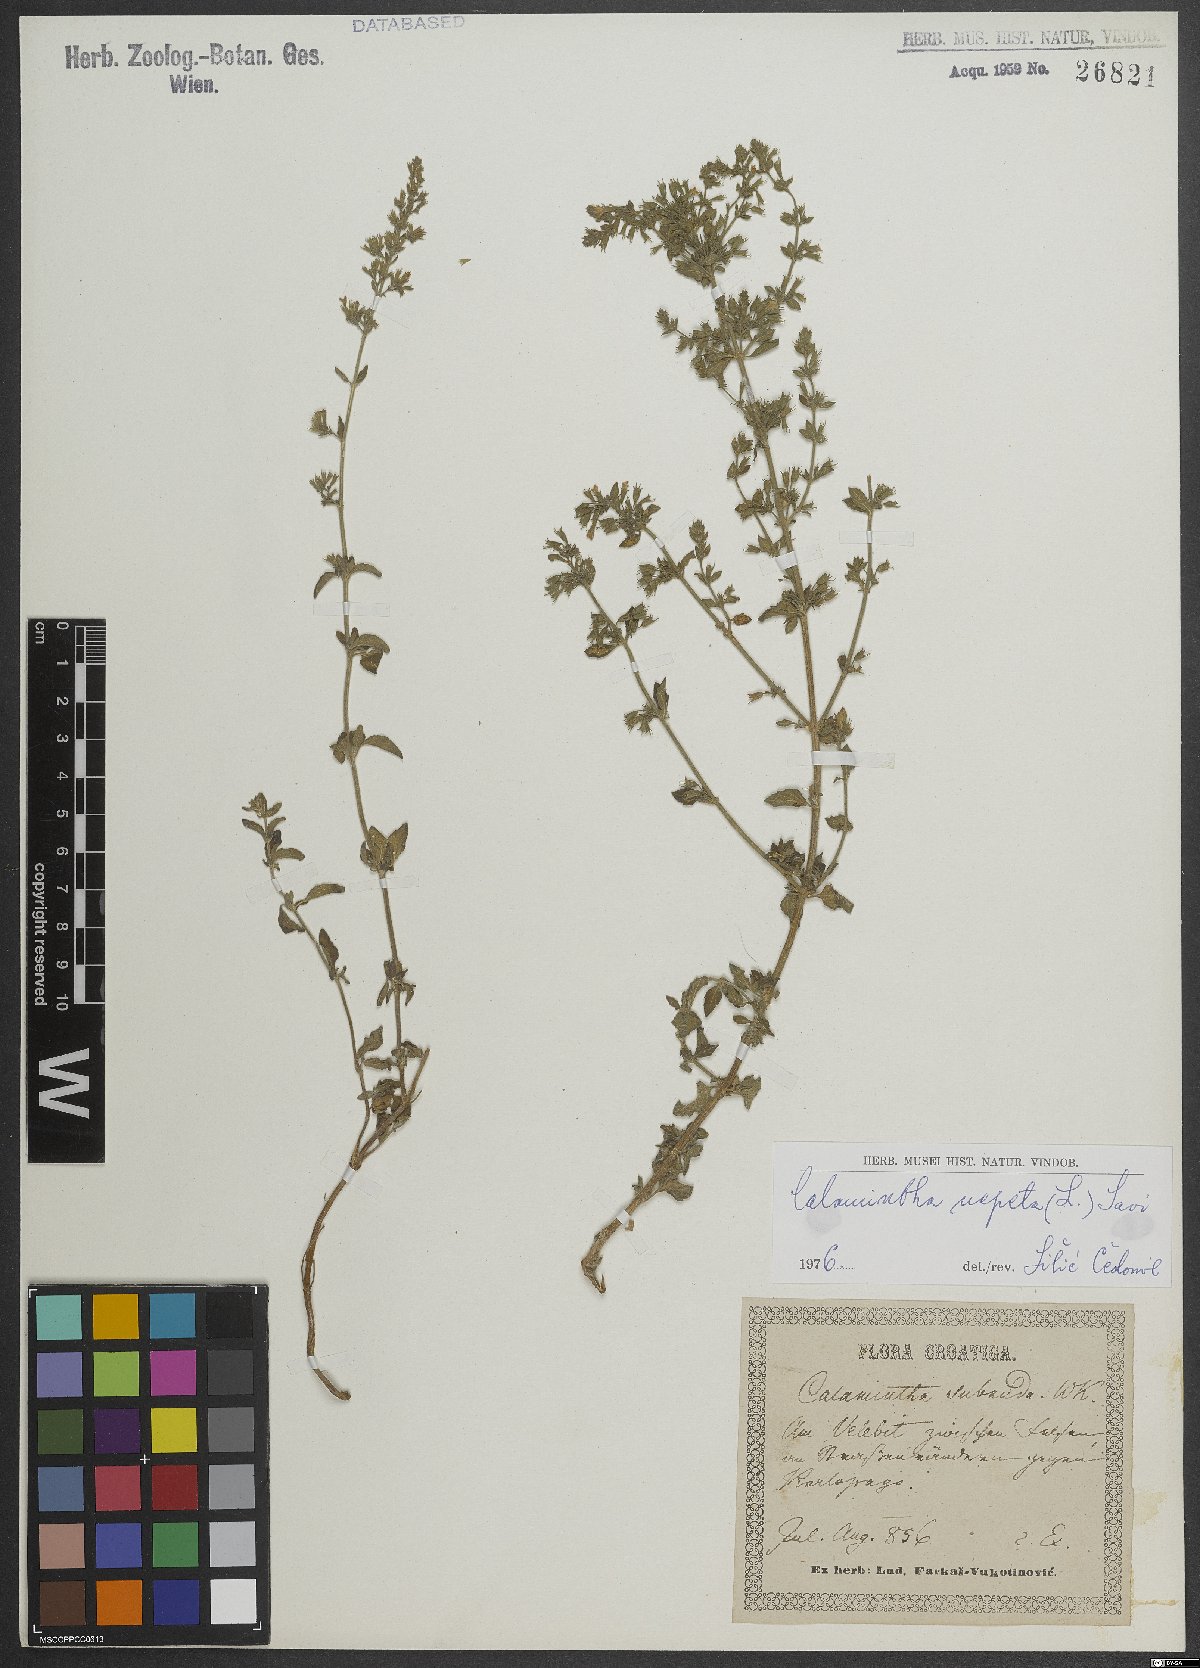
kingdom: Plantae
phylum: Tracheophyta
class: Magnoliopsida
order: Lamiales
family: Lamiaceae
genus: Clinopodium
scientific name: Clinopodium nepeta
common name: Lesser calamint
